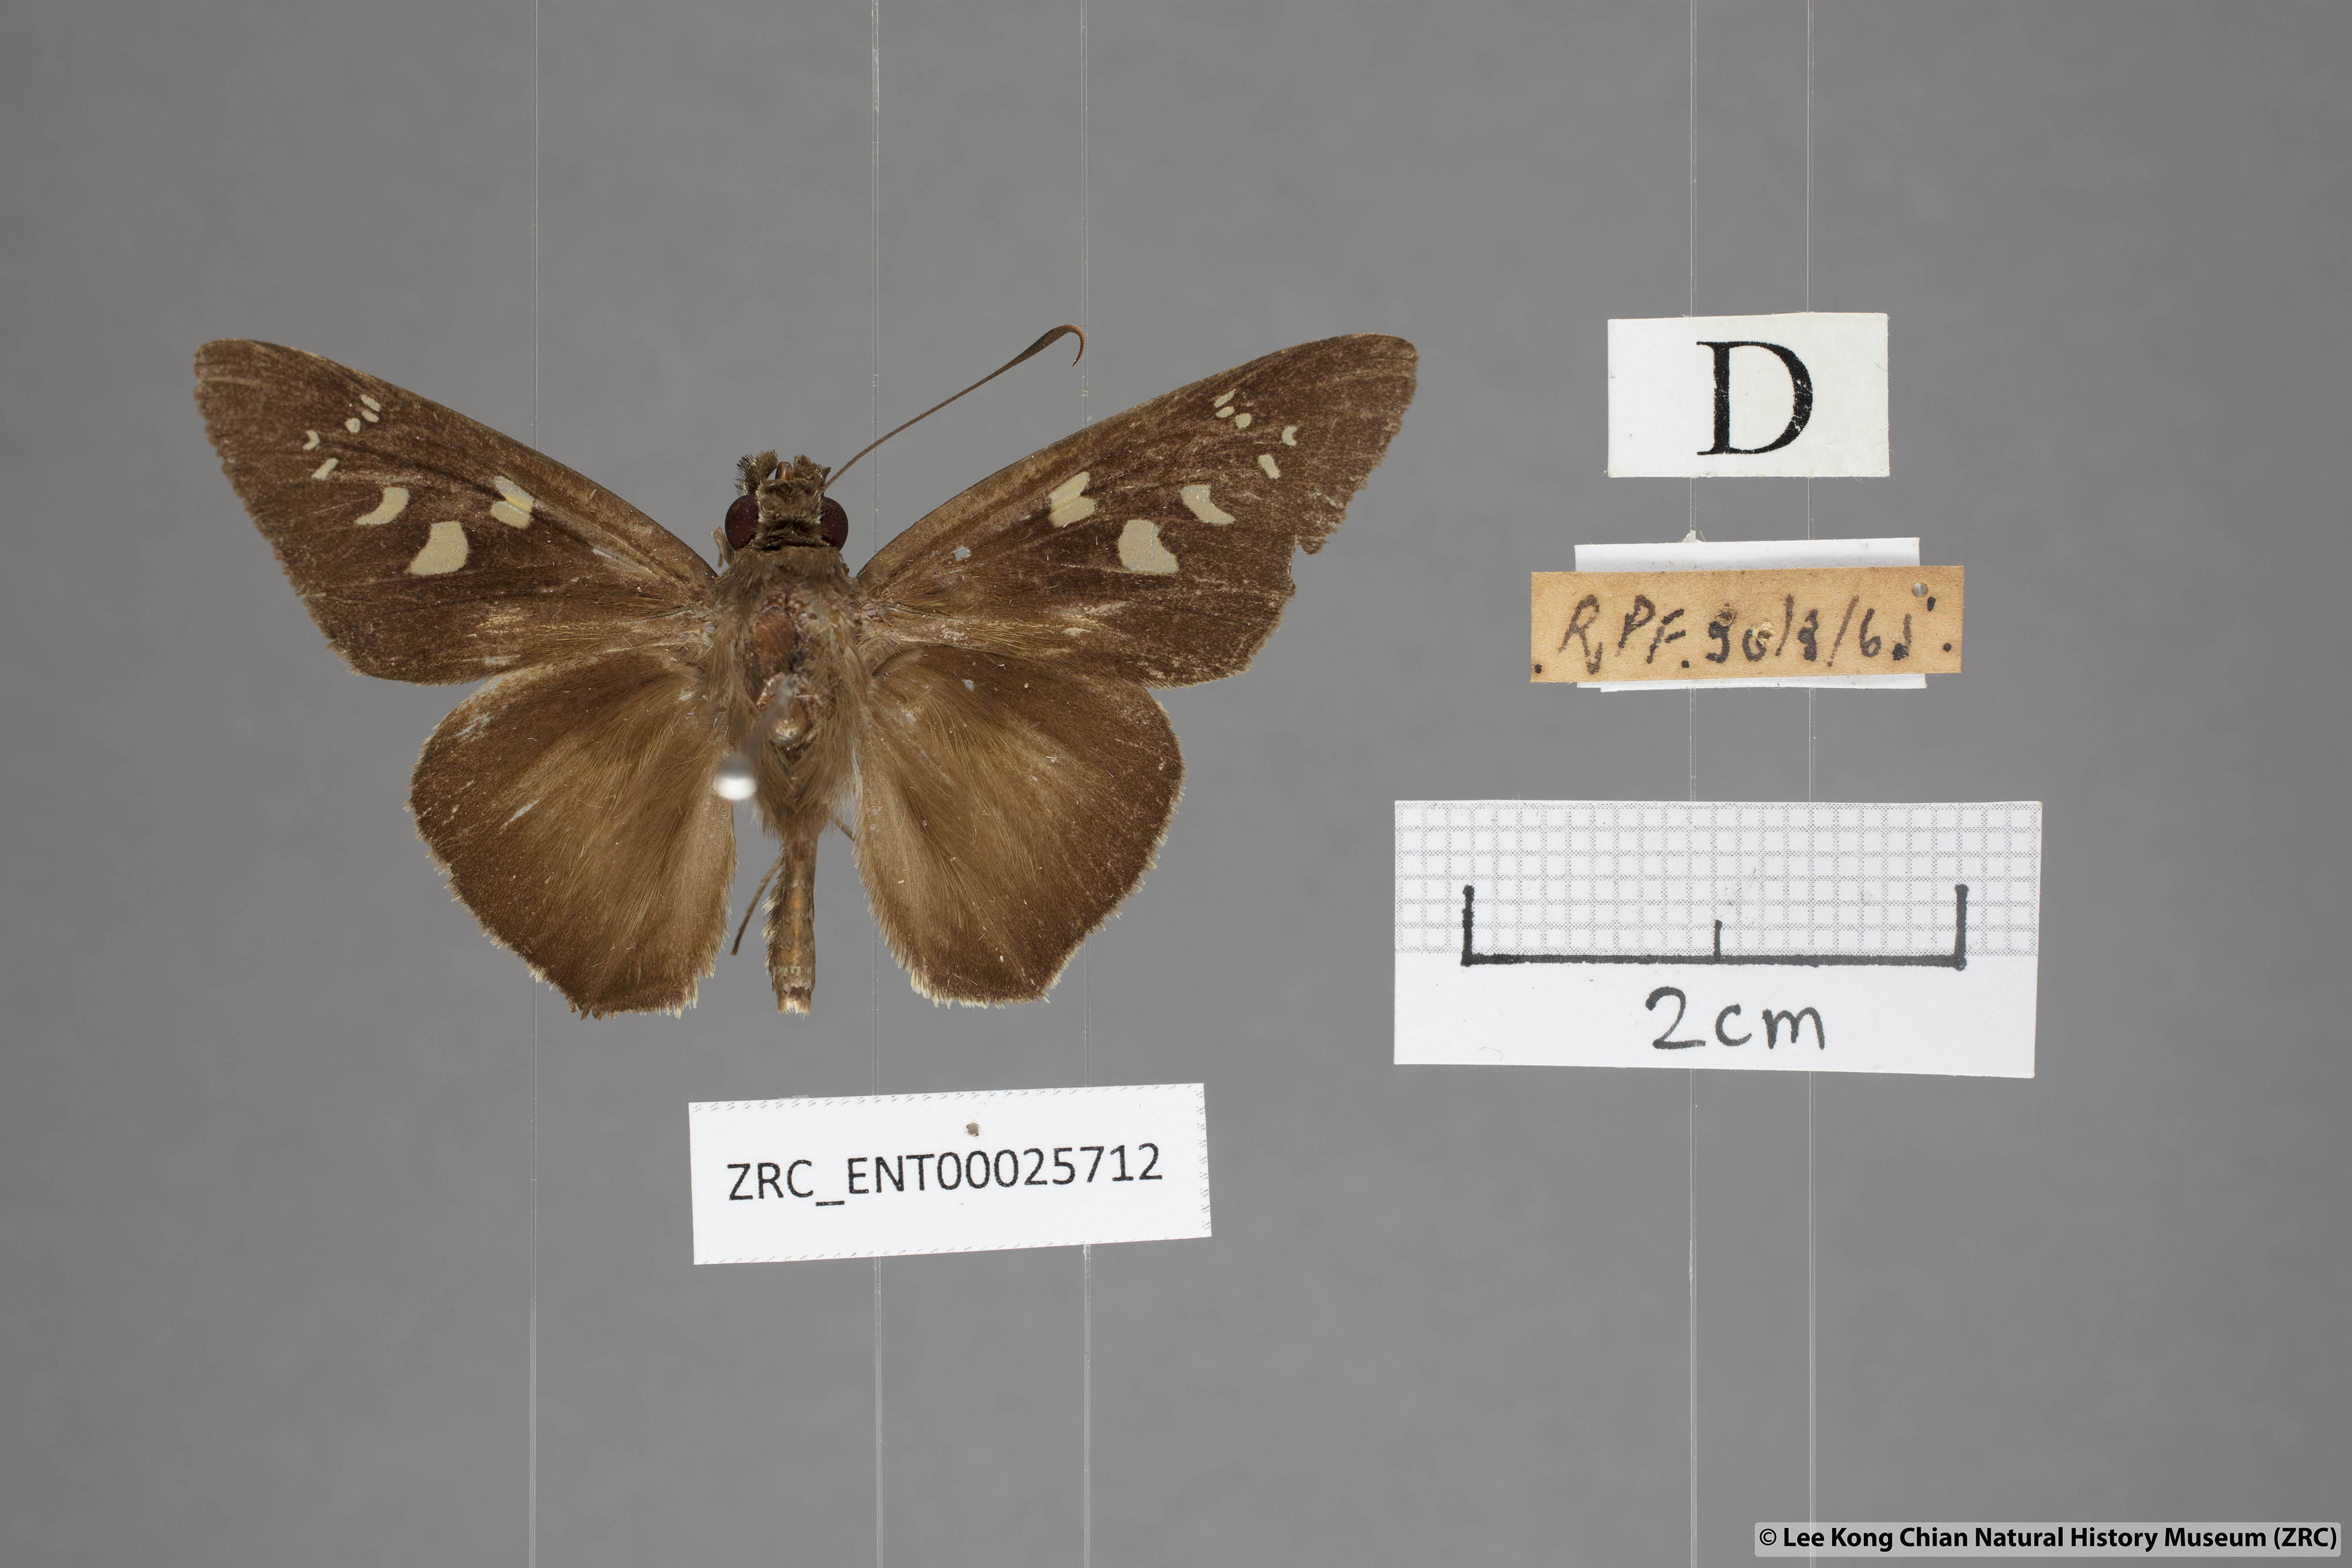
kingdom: Animalia
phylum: Arthropoda
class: Insecta
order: Lepidoptera
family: Hesperiidae
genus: Unkana
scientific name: Unkana ambasa
